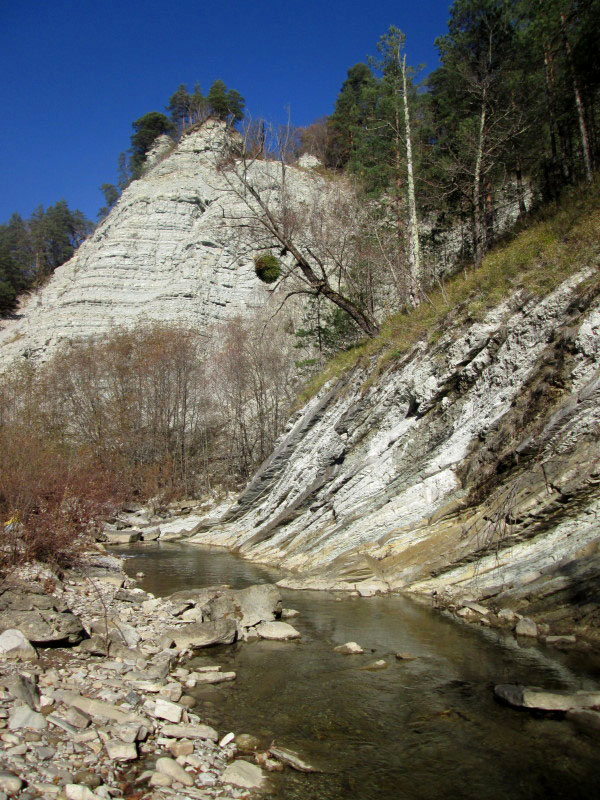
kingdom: Plantae
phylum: Tracheophyta
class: Magnoliopsida
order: Santalales
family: Viscaceae
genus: Viscum
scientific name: Viscum album
